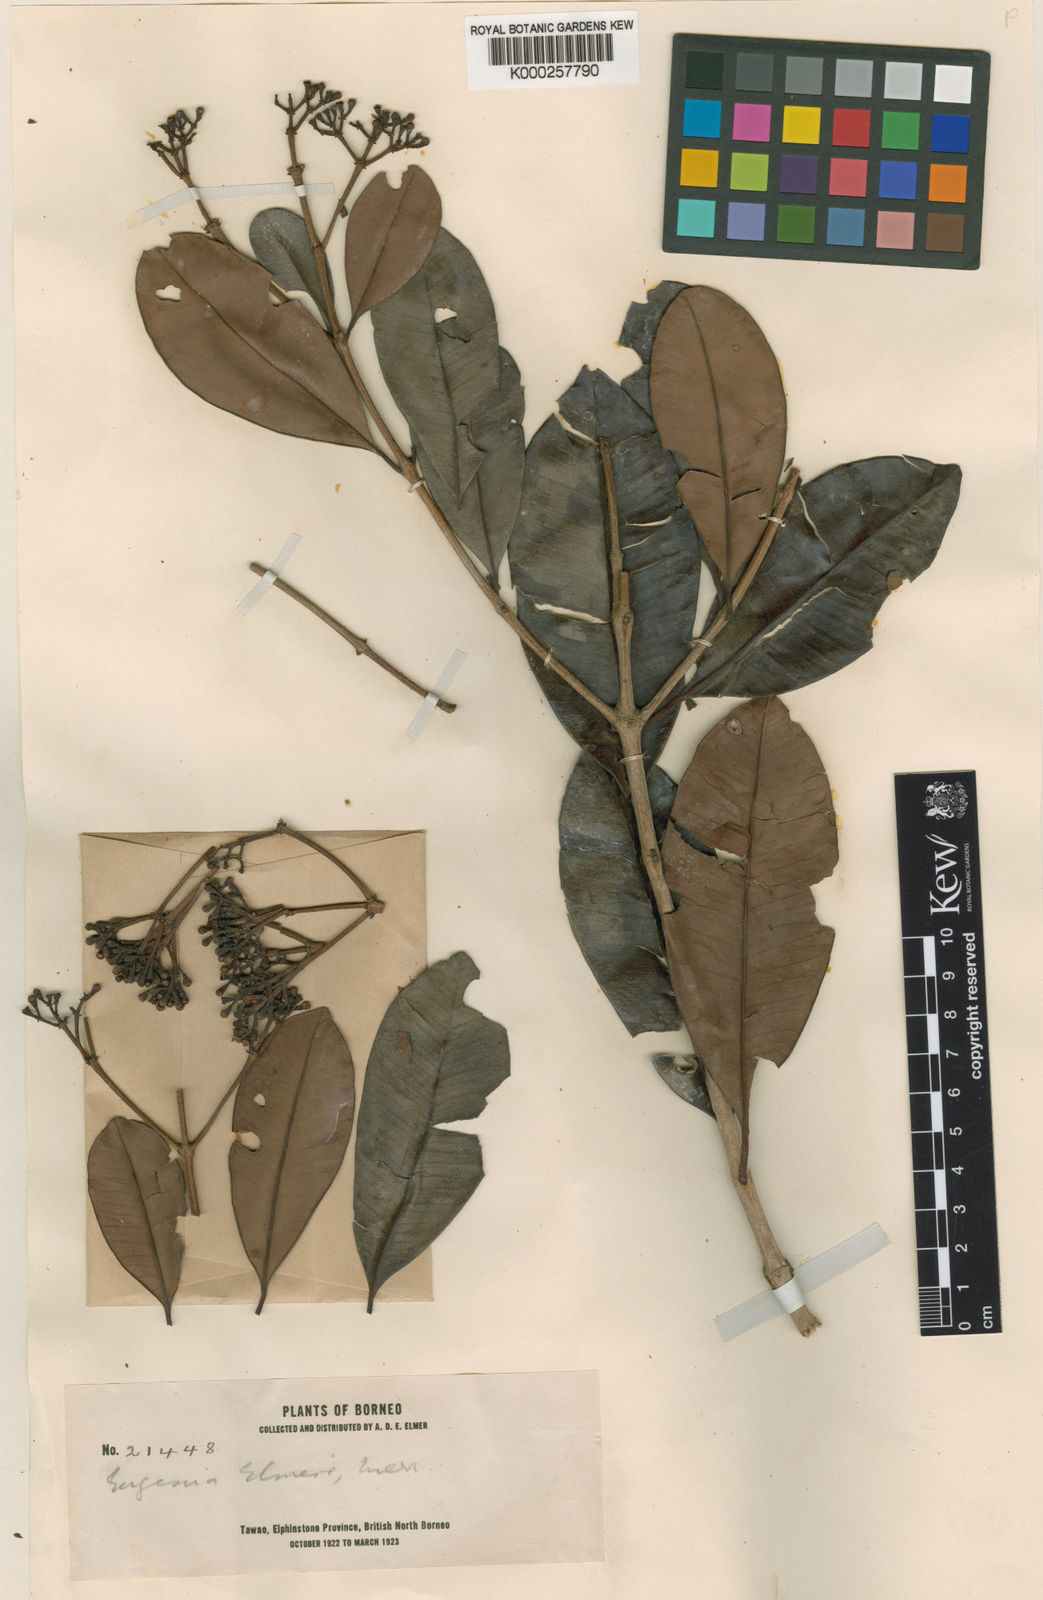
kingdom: Plantae
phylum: Tracheophyta
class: Magnoliopsida
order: Myrtales
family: Myrtaceae
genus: Syzygium
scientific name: Syzygium fastigiatum
